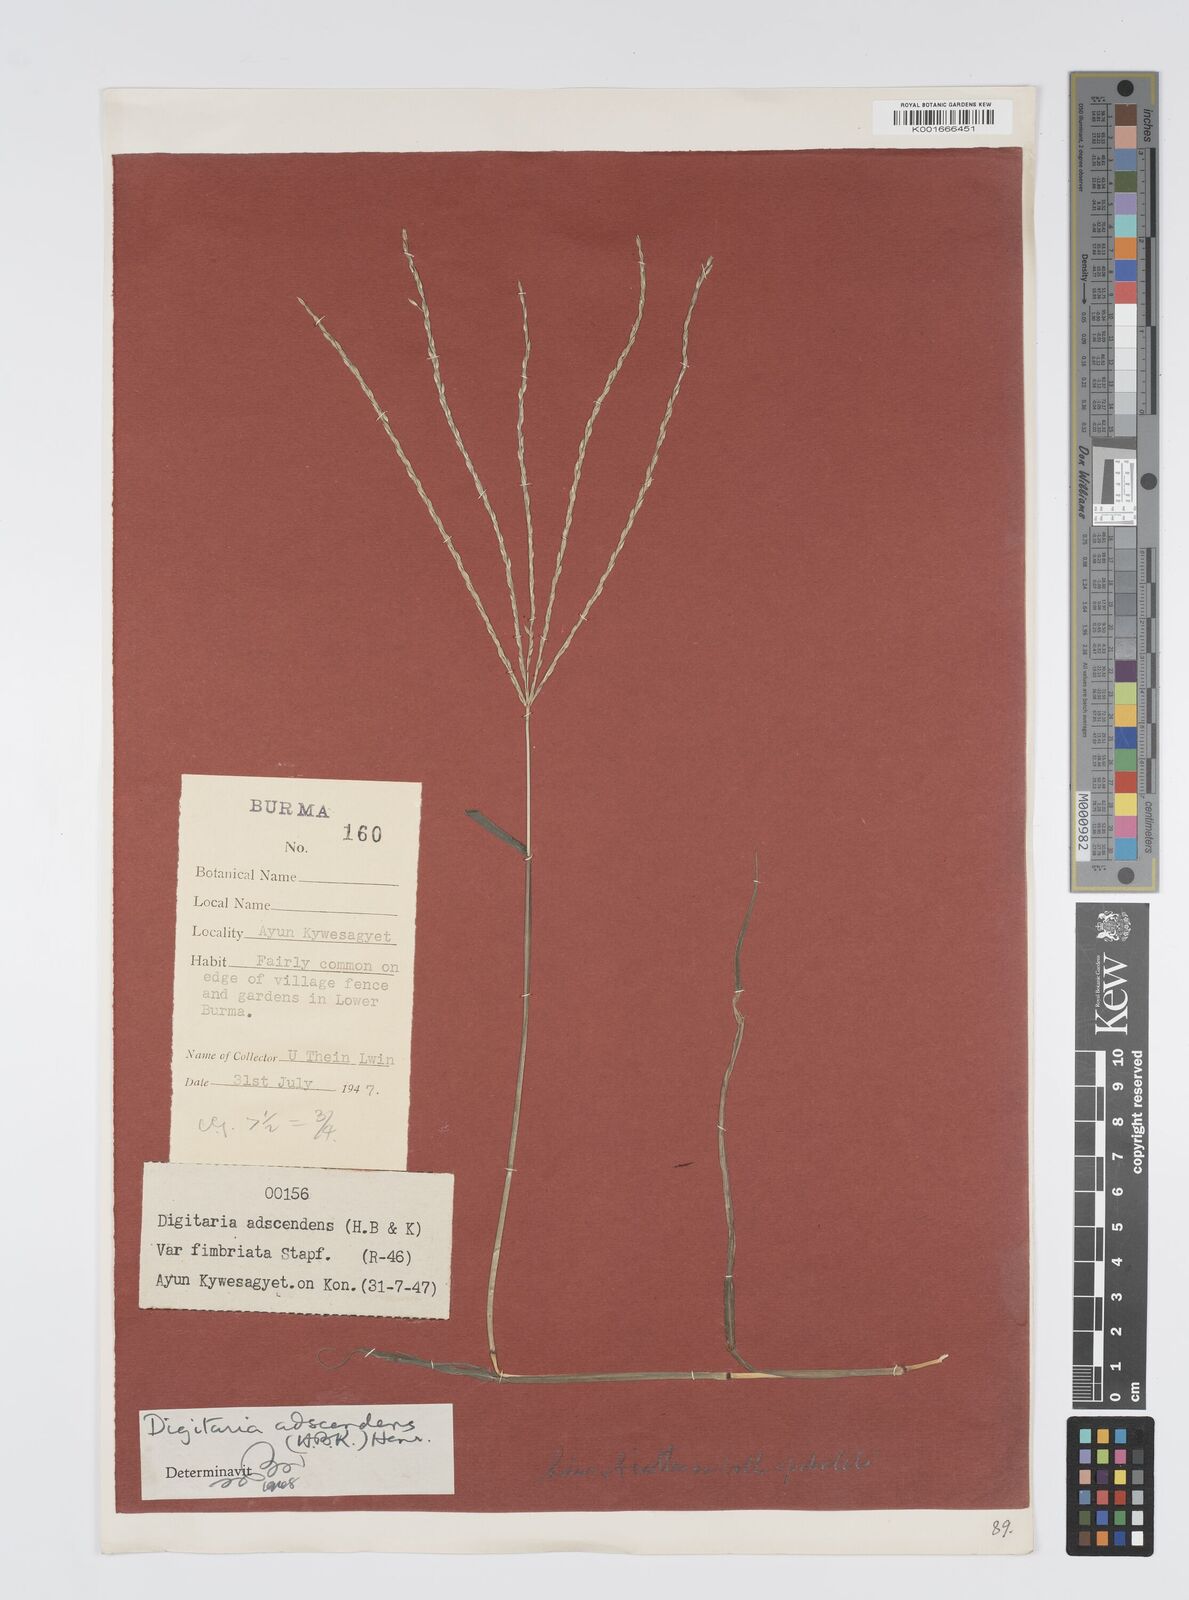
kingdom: Plantae
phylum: Tracheophyta
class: Liliopsida
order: Poales
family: Poaceae
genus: Digitaria
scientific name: Digitaria bicornis
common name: Asian crabgrass
